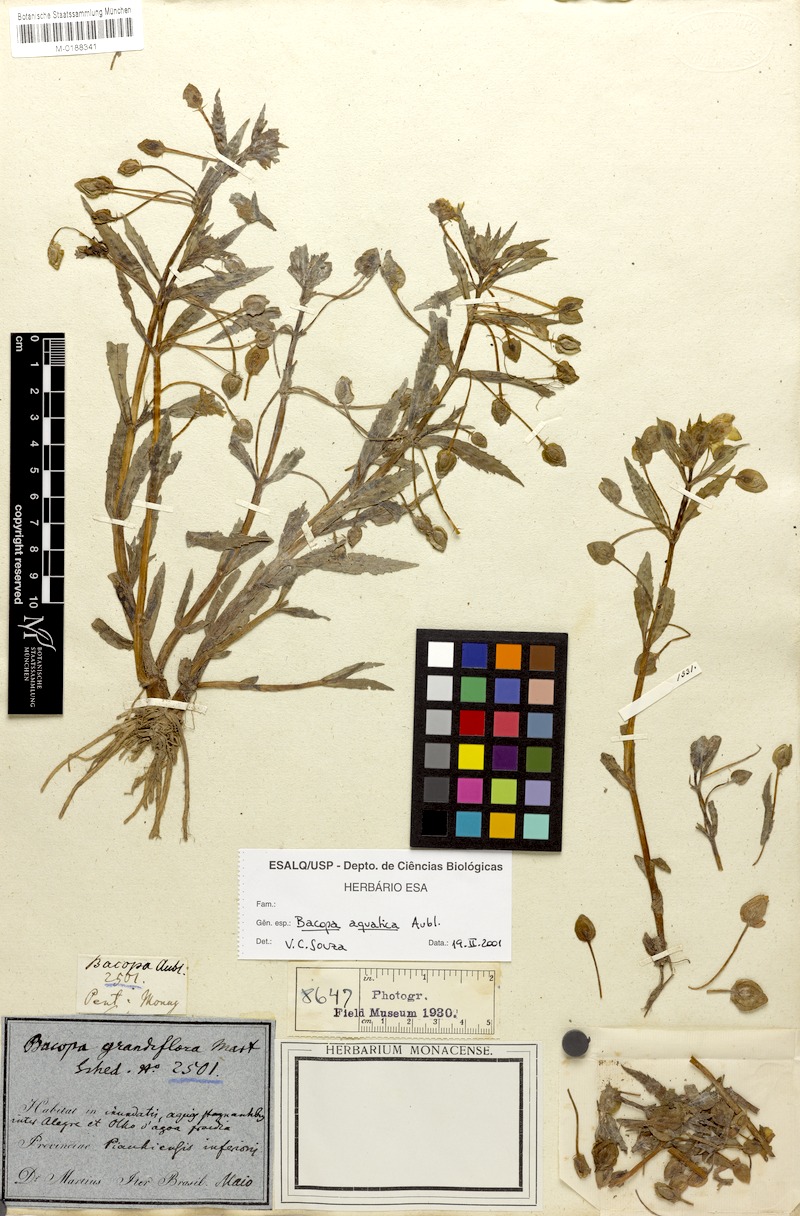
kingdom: Plantae
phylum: Tracheophyta
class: Magnoliopsida
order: Lamiales
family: Plantaginaceae
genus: Bacopa
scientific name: Bacopa aquatica
